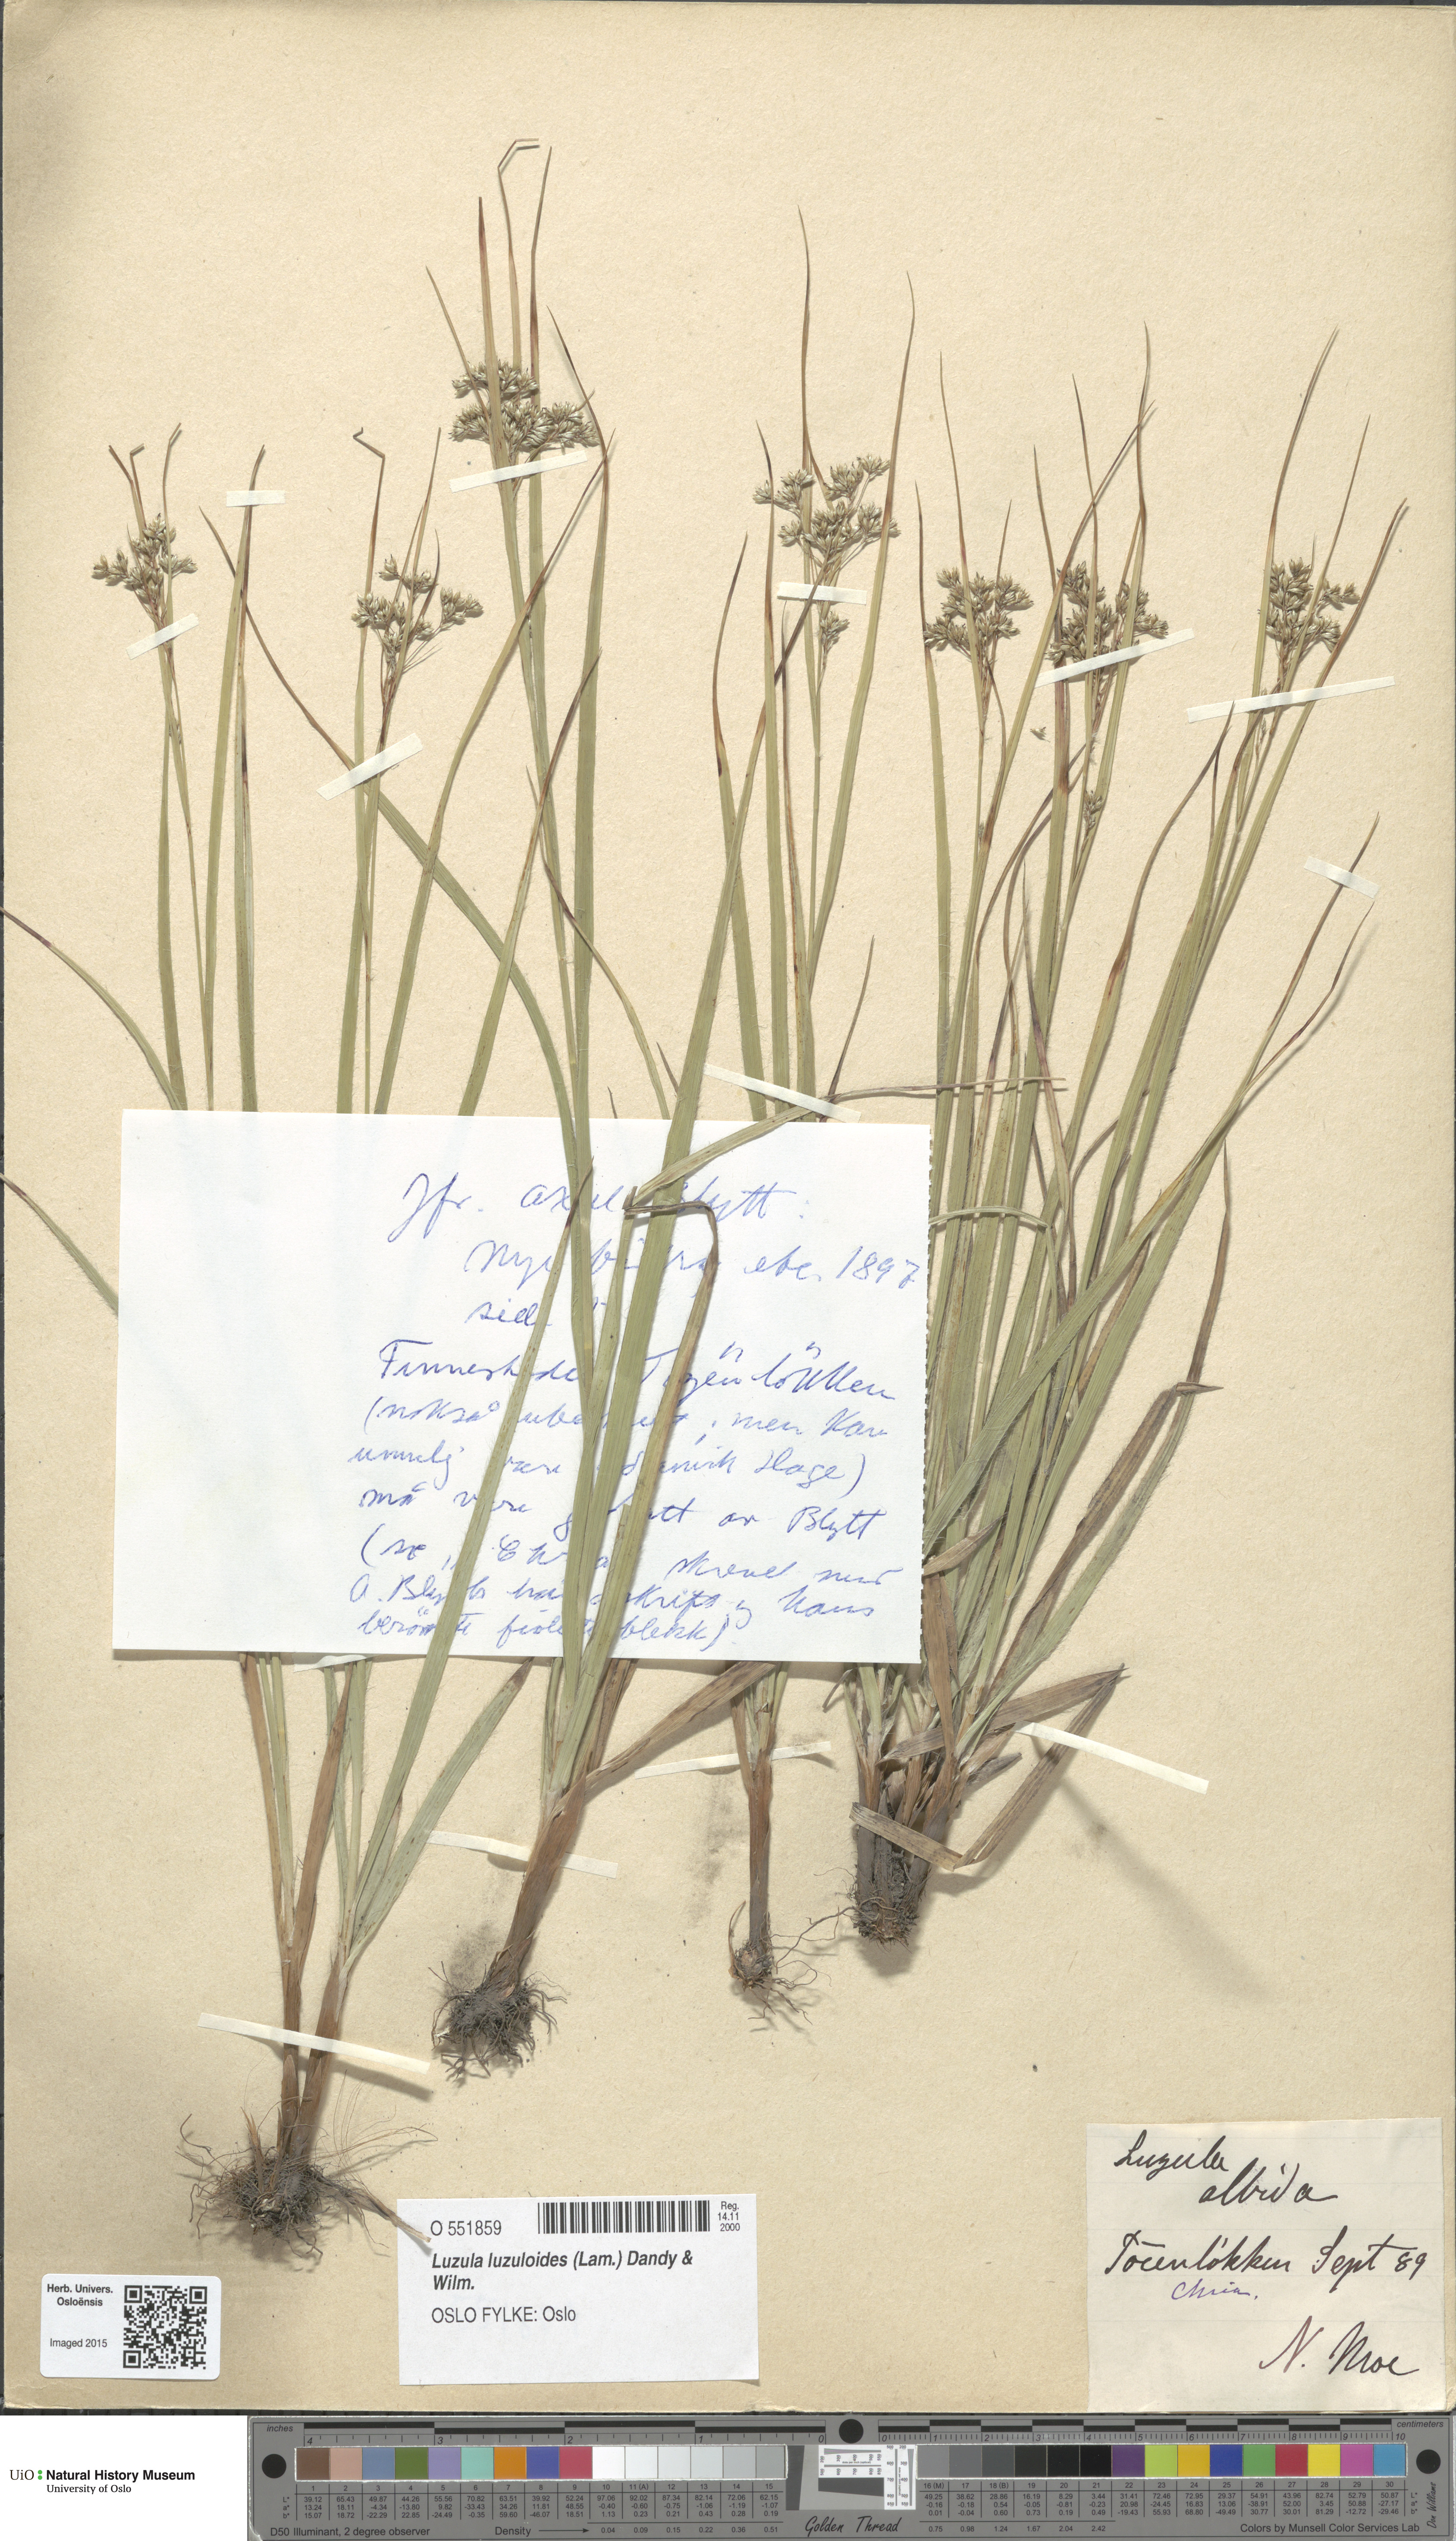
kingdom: Plantae
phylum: Tracheophyta
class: Liliopsida
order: Poales
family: Juncaceae
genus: Luzula
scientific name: Luzula luzuloides
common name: White wood-rush
